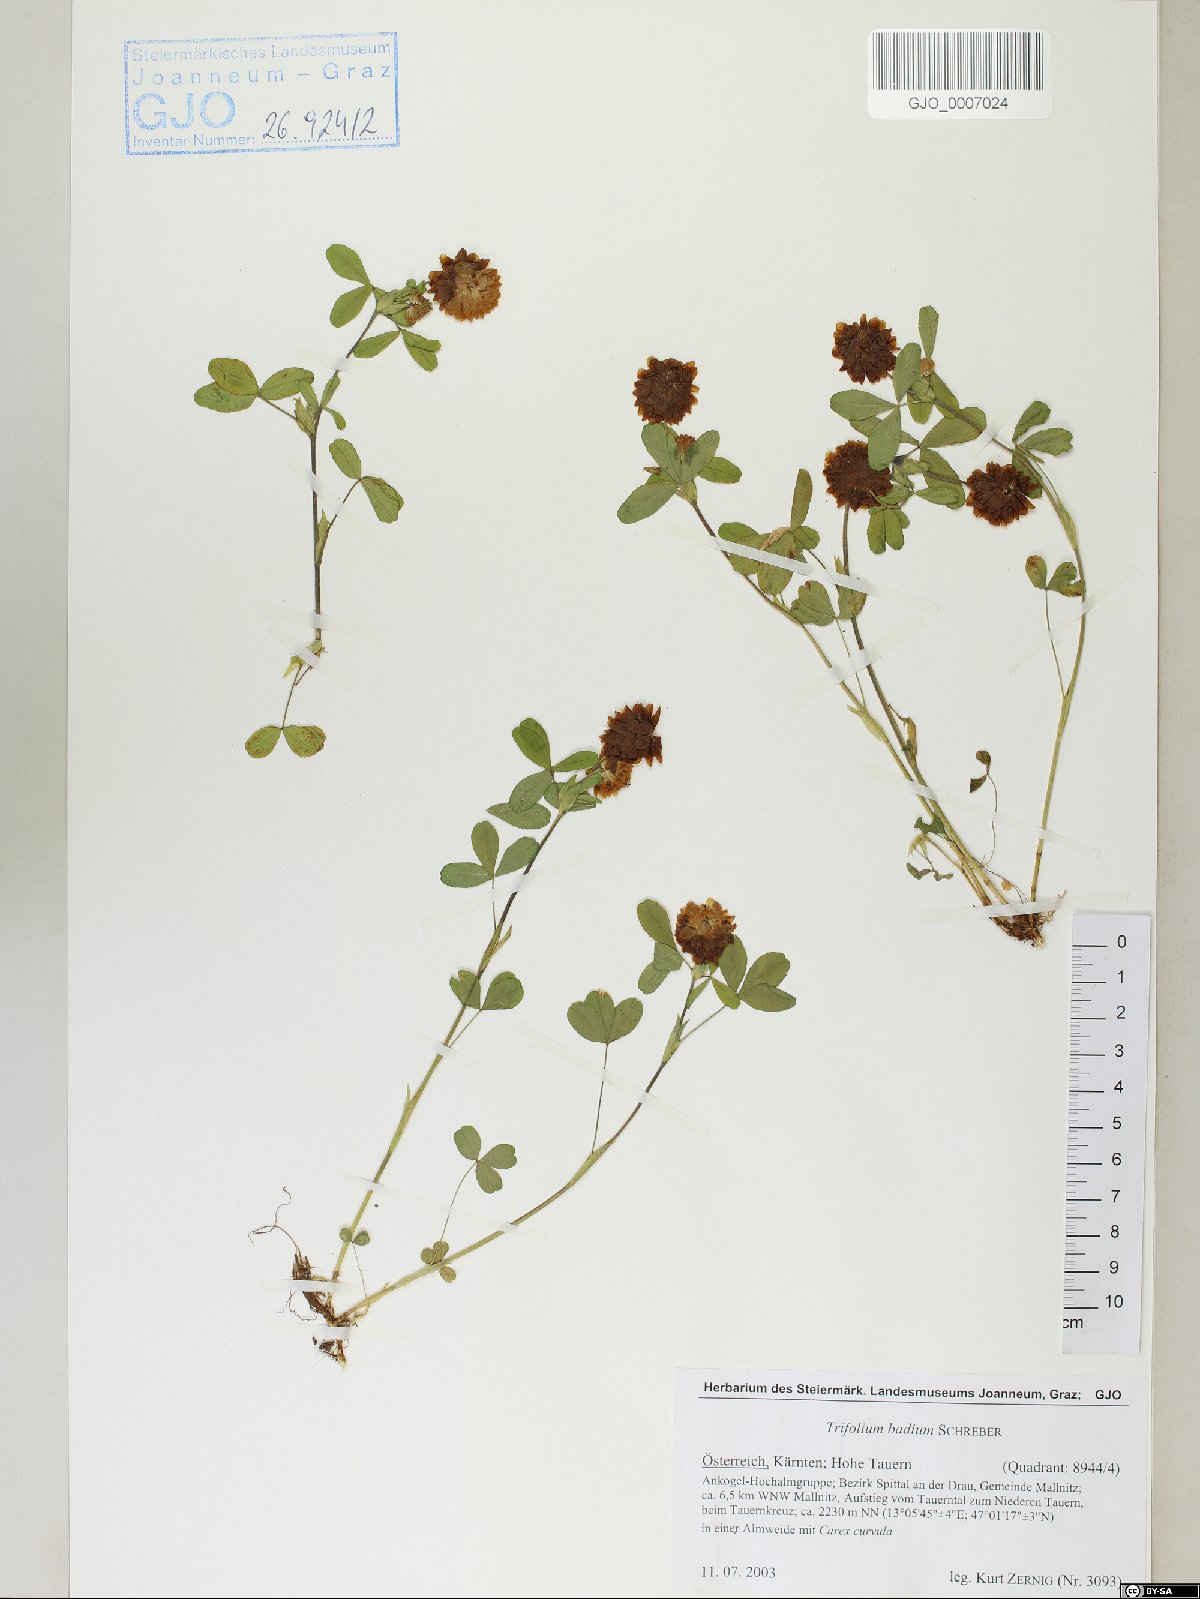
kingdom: Plantae
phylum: Tracheophyta
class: Magnoliopsida
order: Fabales
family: Fabaceae
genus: Trifolium
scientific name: Trifolium badium
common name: Brown clover
